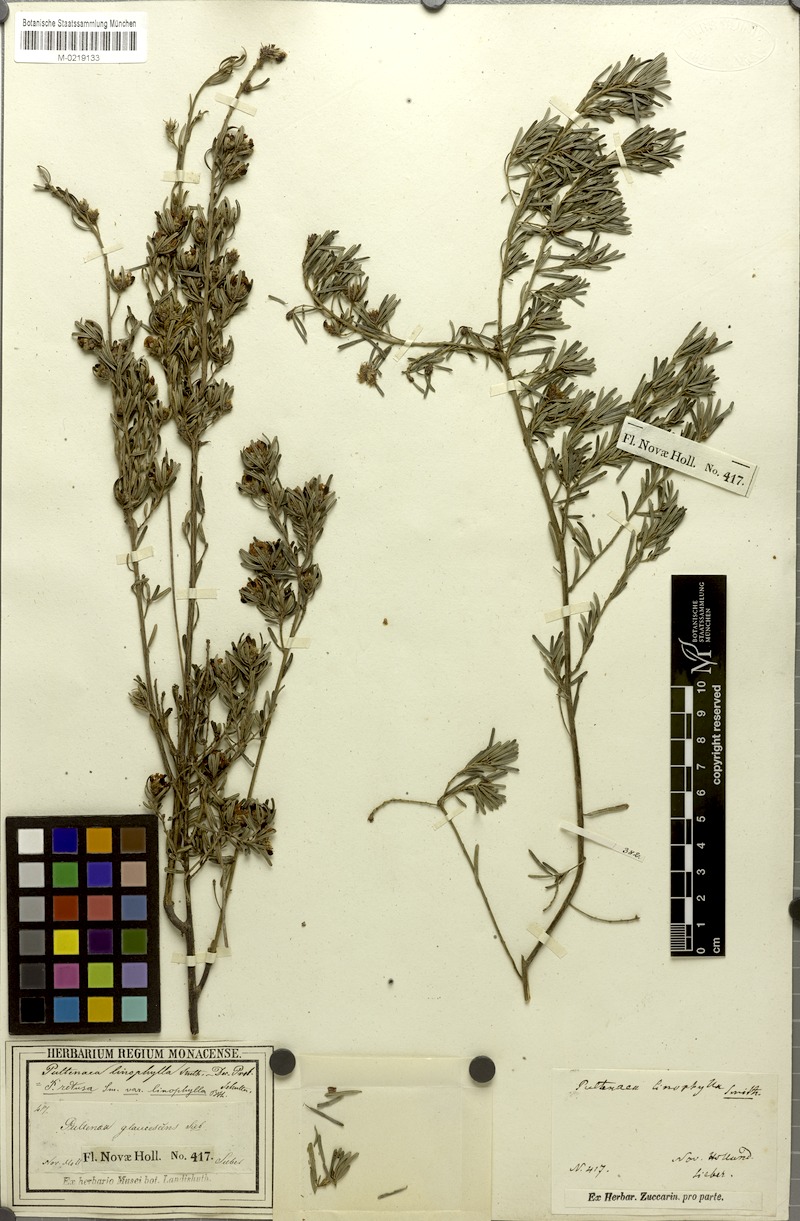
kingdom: Plantae
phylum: Tracheophyta
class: Magnoliopsida
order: Fabales
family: Fabaceae
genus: Pultenaea
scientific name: Pultenaea linophylla
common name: Halo bush-pea
